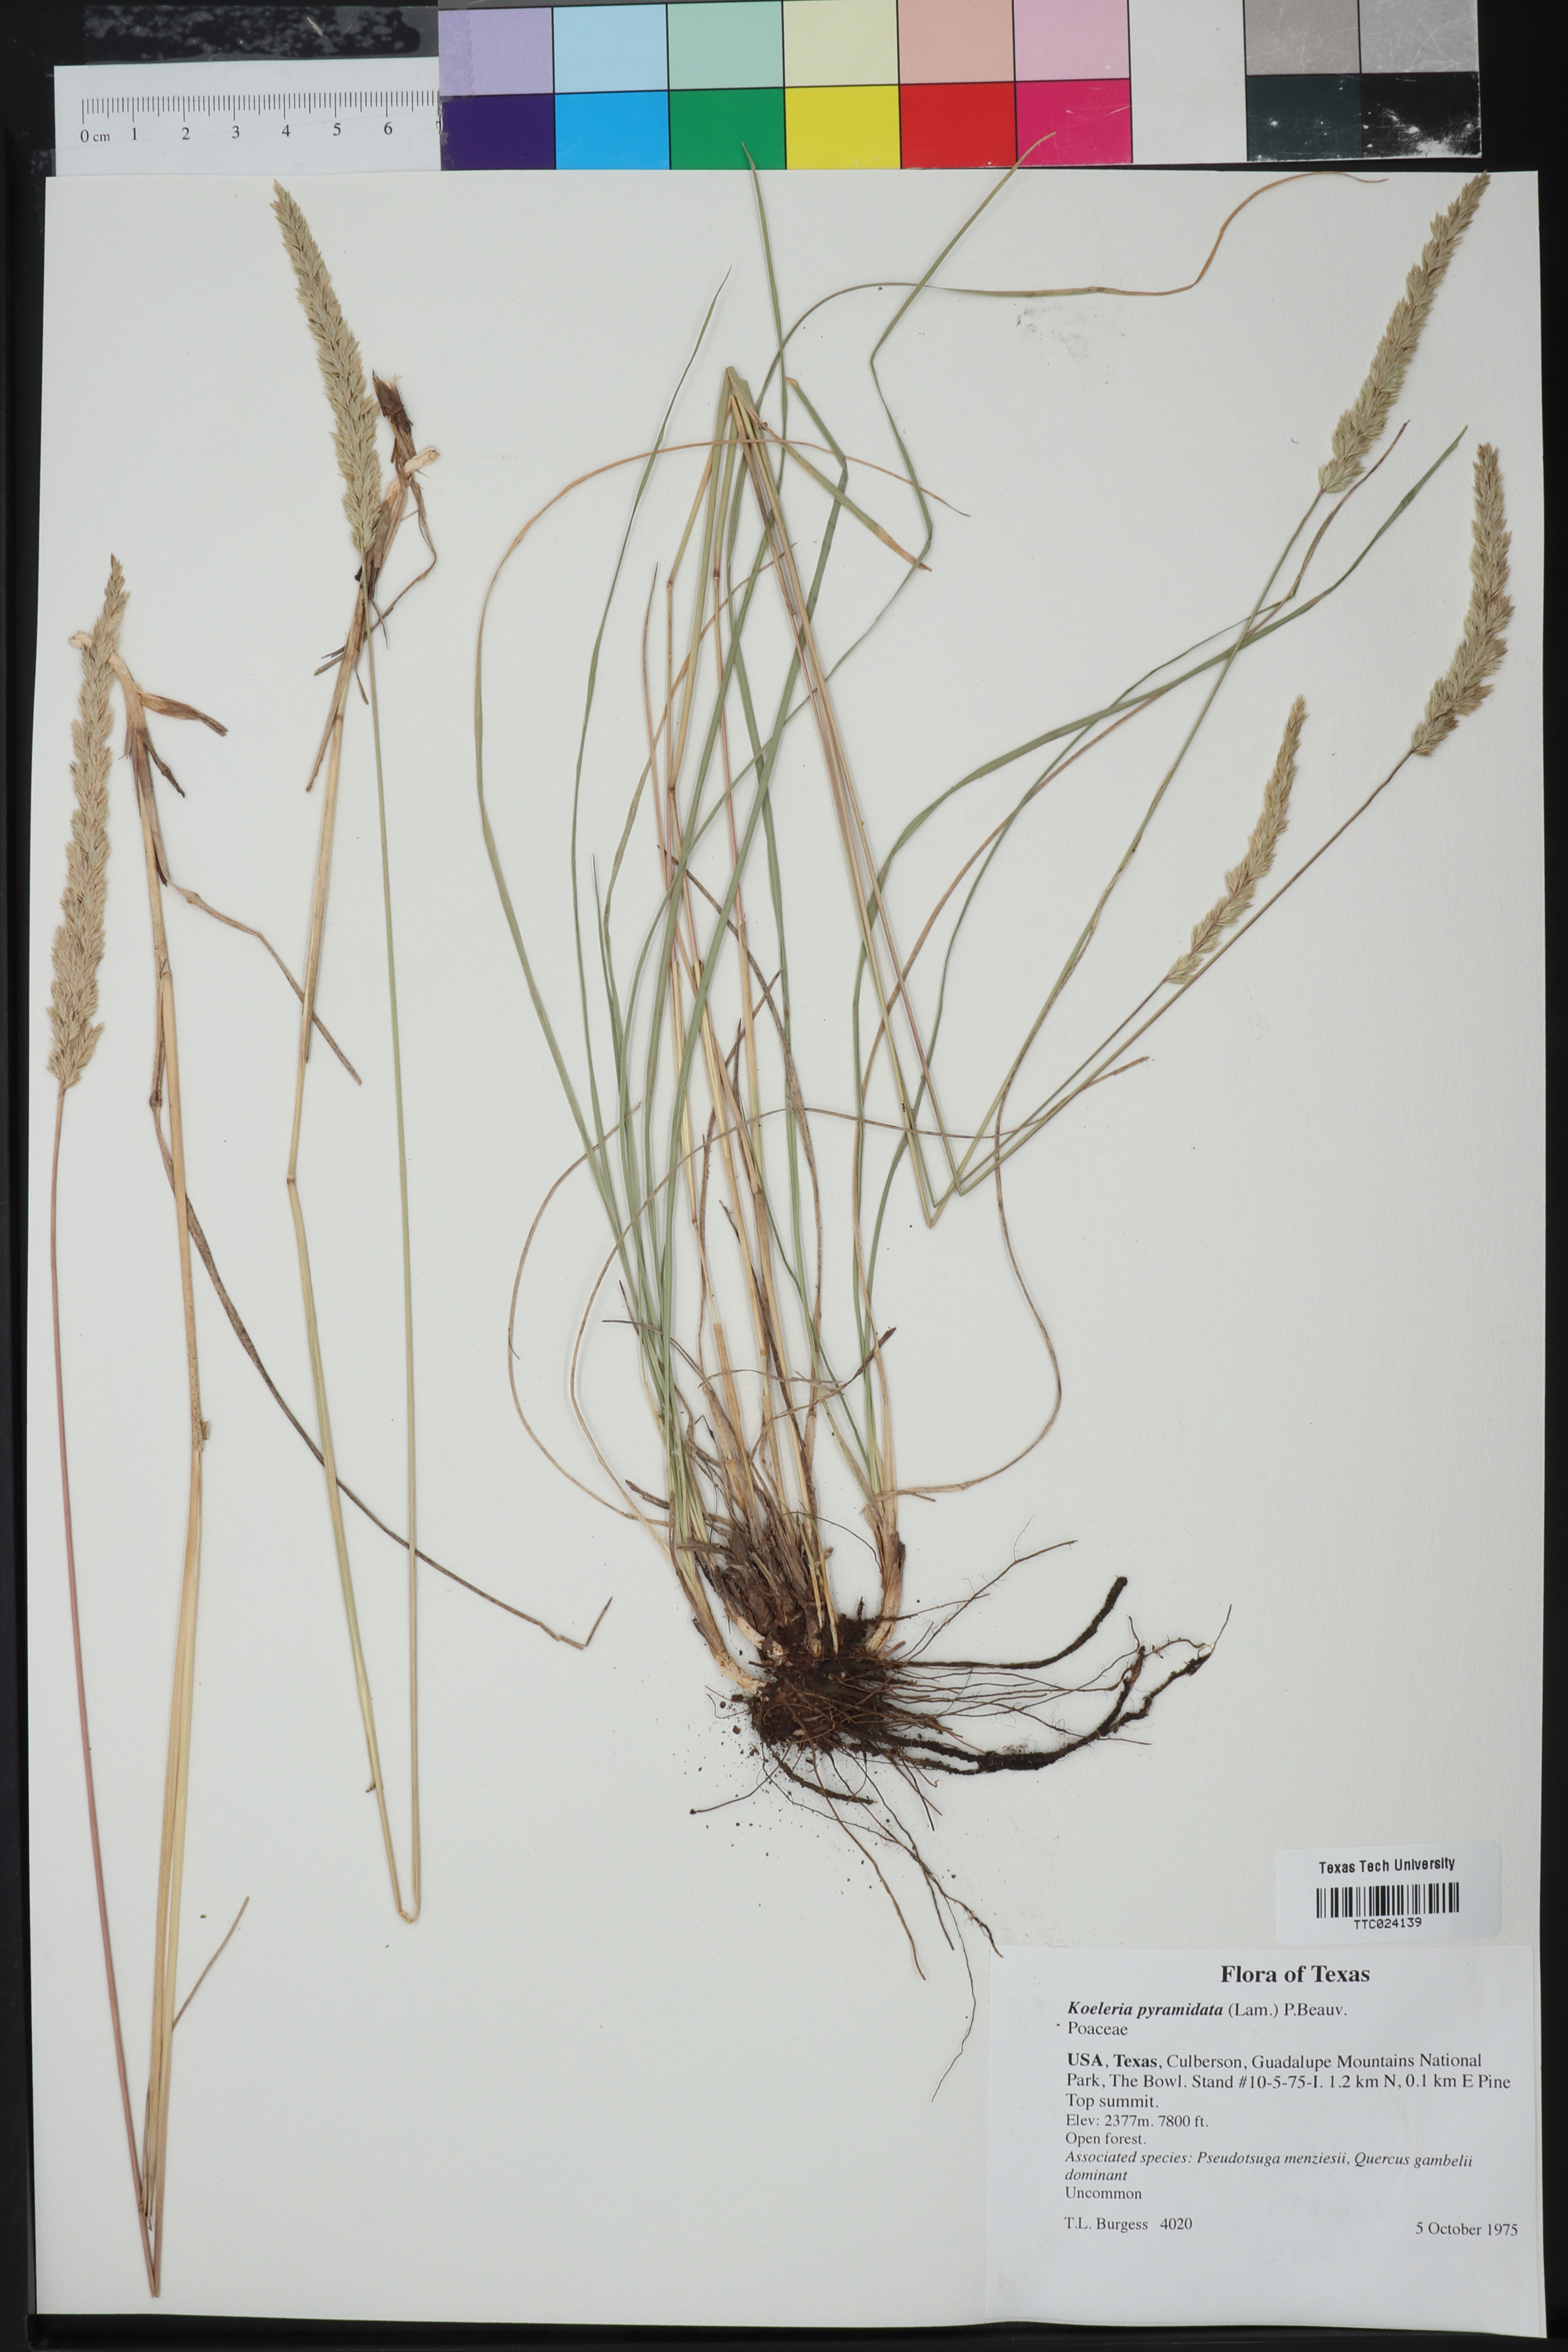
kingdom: Plantae
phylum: Tracheophyta
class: Liliopsida
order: Poales
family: Poaceae
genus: Koeleria
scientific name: Koeleria pyramidata
